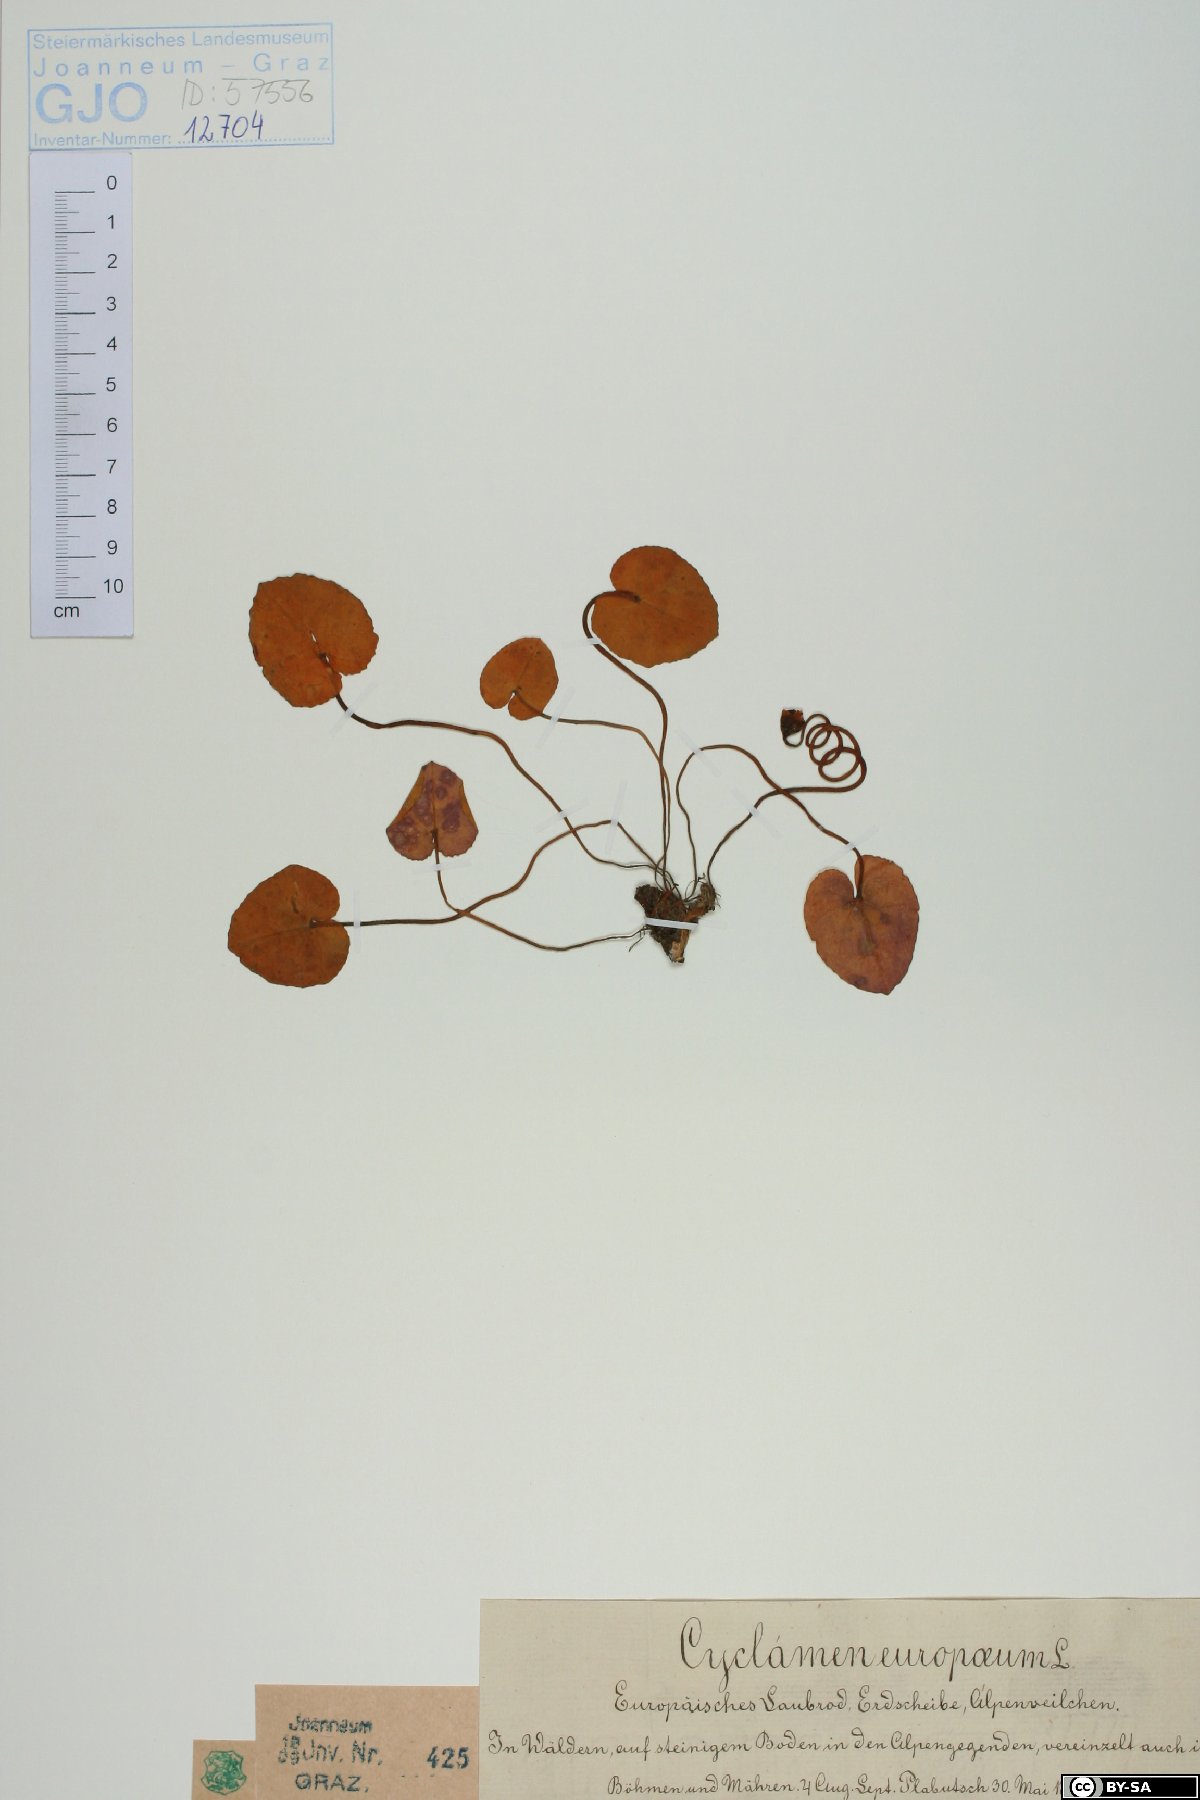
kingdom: Plantae
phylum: Tracheophyta
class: Magnoliopsida
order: Ericales
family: Primulaceae
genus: Cyclamen
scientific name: Cyclamen purpurascens
